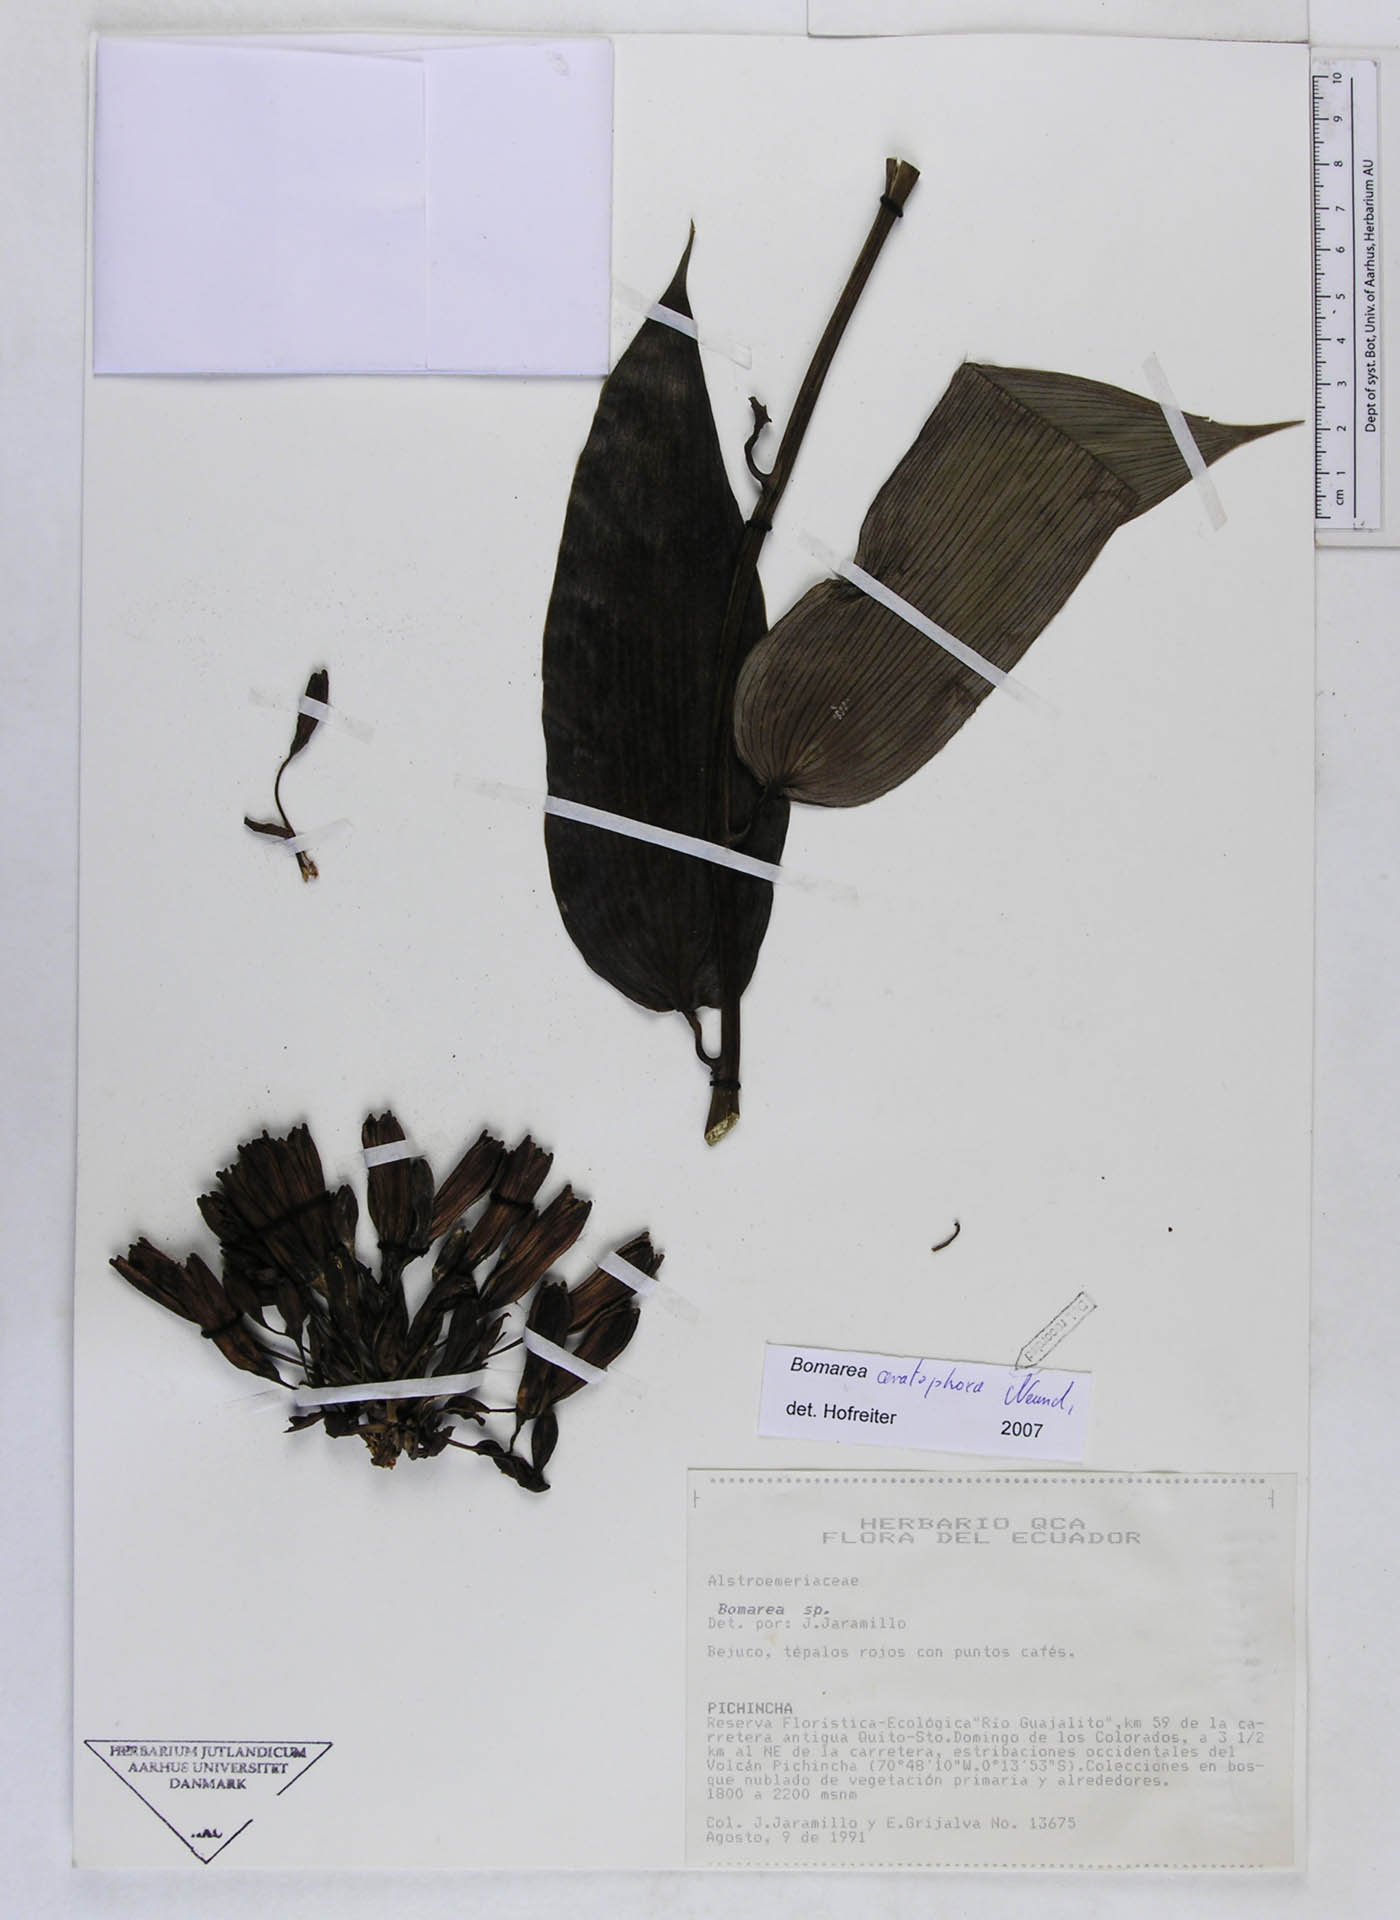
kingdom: Plantae
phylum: Tracheophyta
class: Liliopsida
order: Liliales
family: Alstroemeriaceae
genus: Bomarea
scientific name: Bomarea ceratophora
